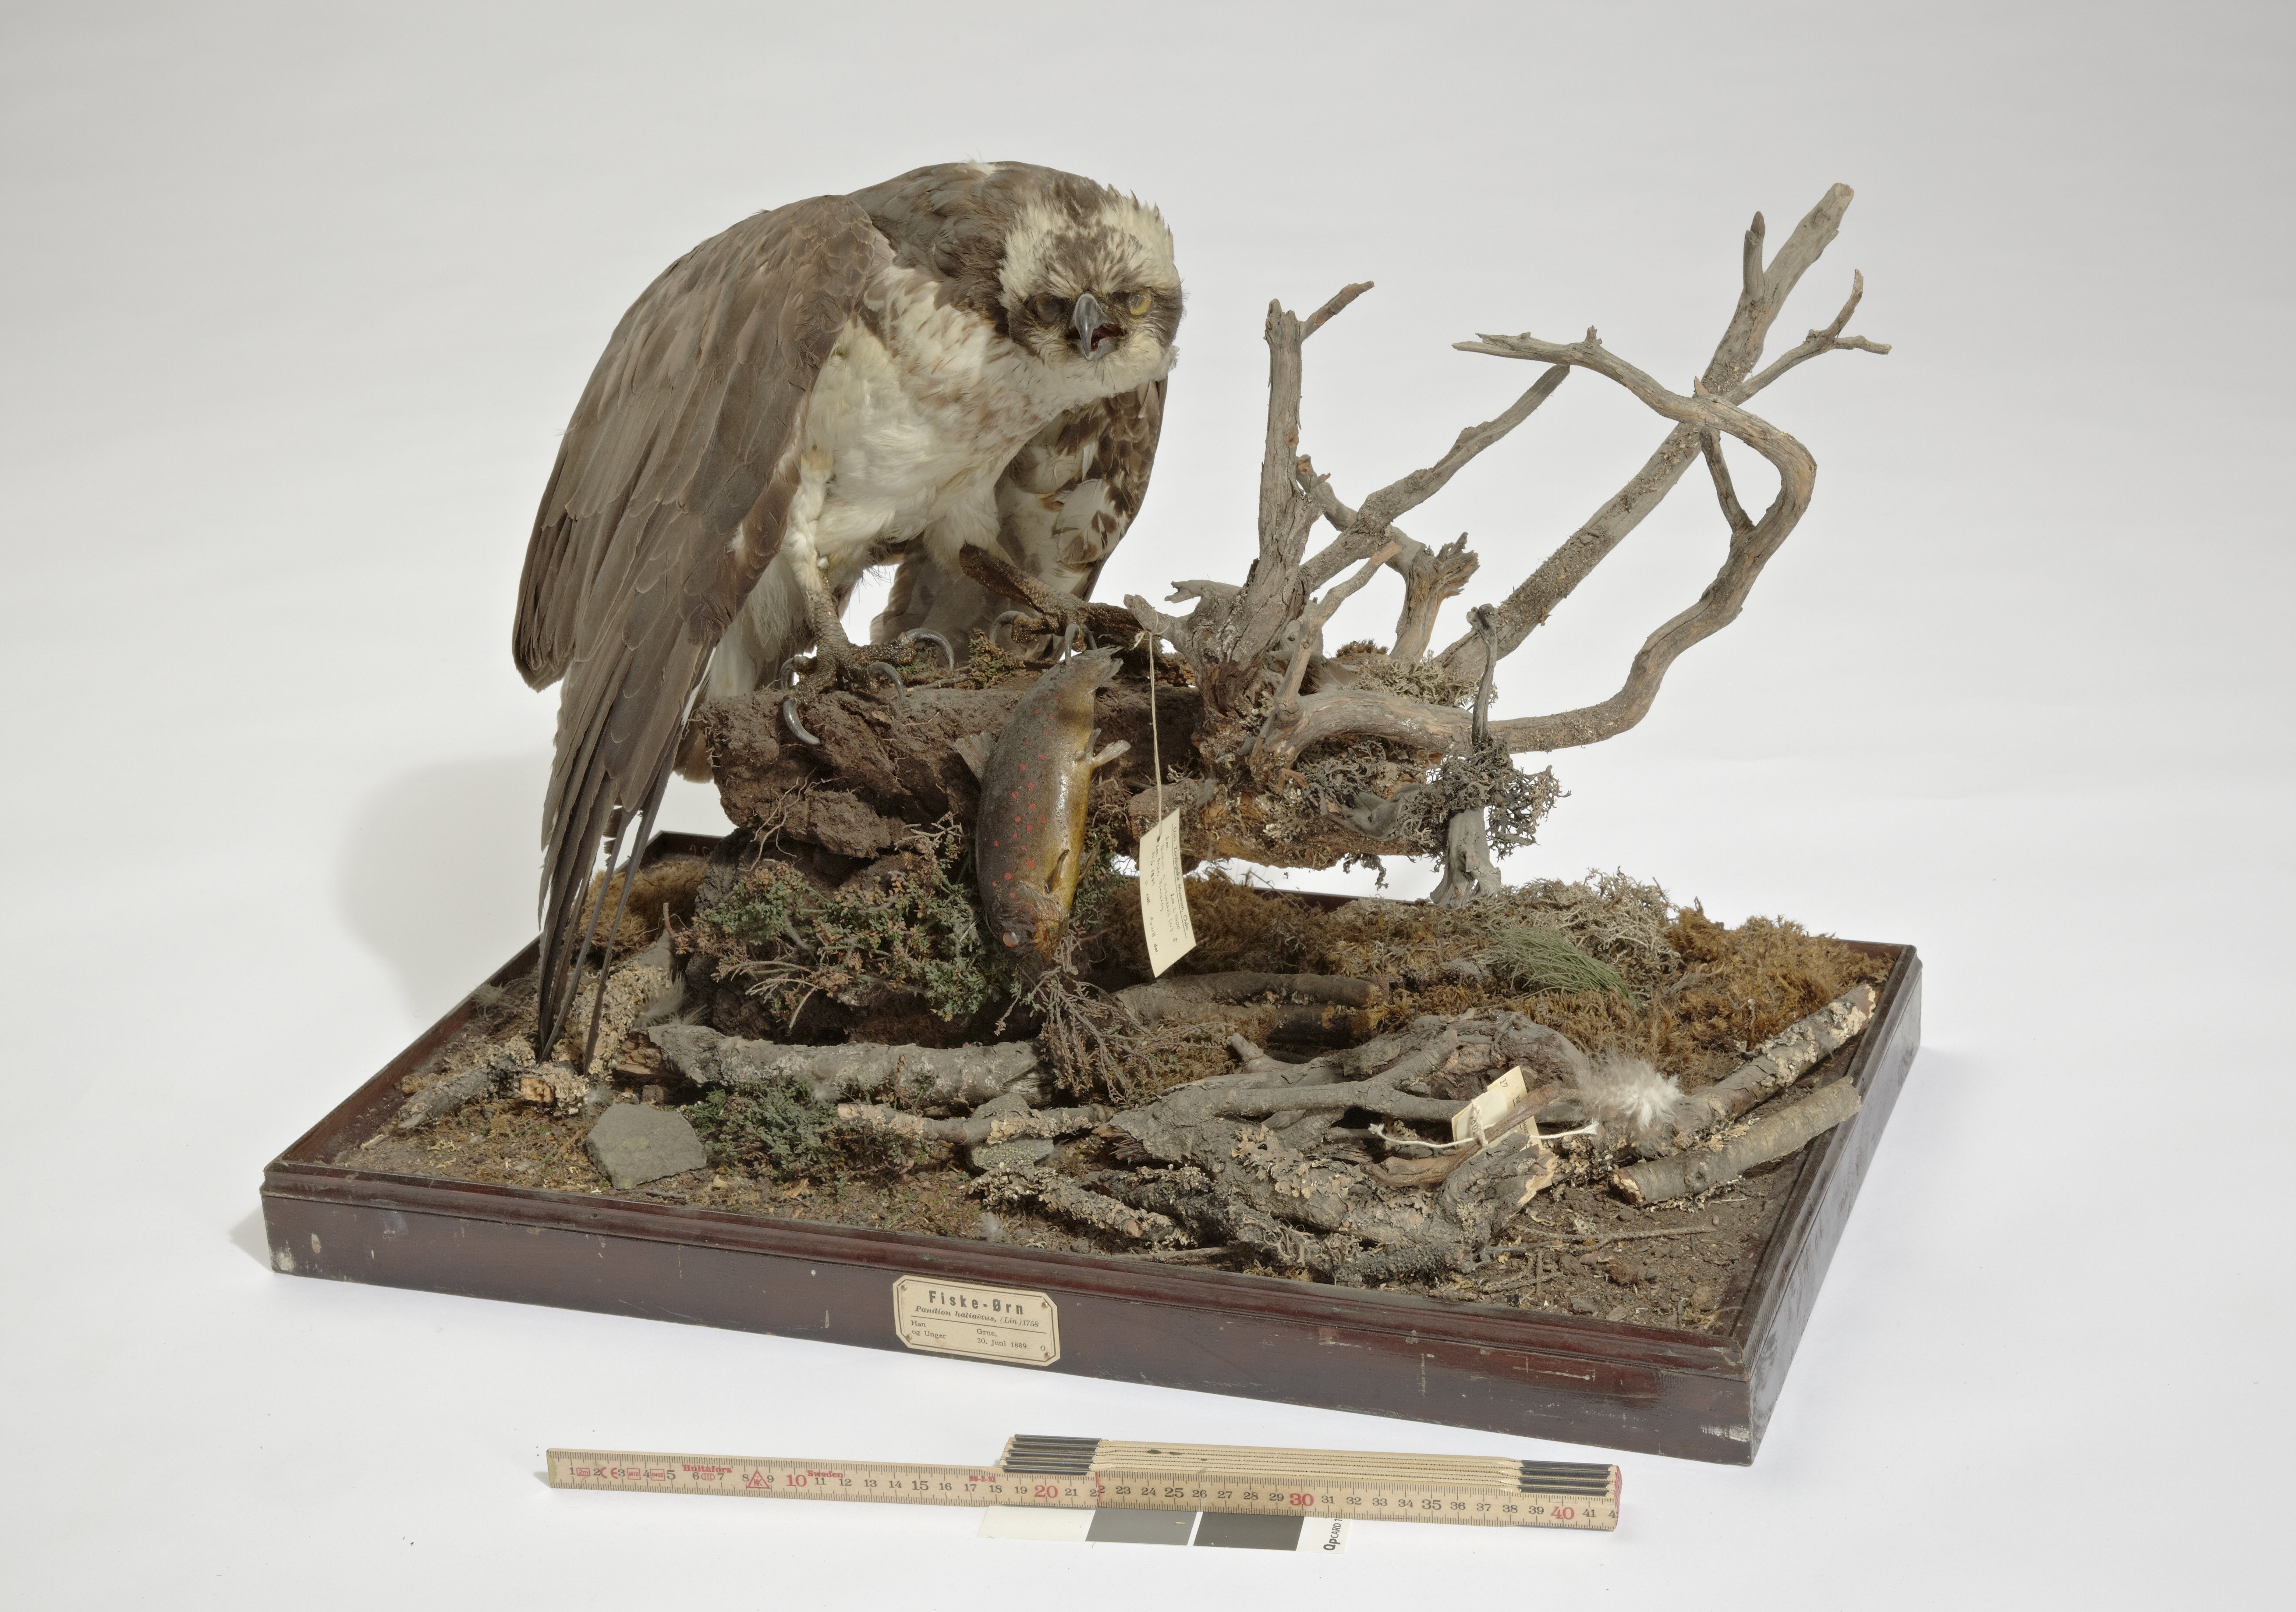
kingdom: Animalia
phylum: Chordata
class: Aves
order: Accipitriformes
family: Pandionidae
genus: Pandion
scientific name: Pandion haliaetus
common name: Osprey
